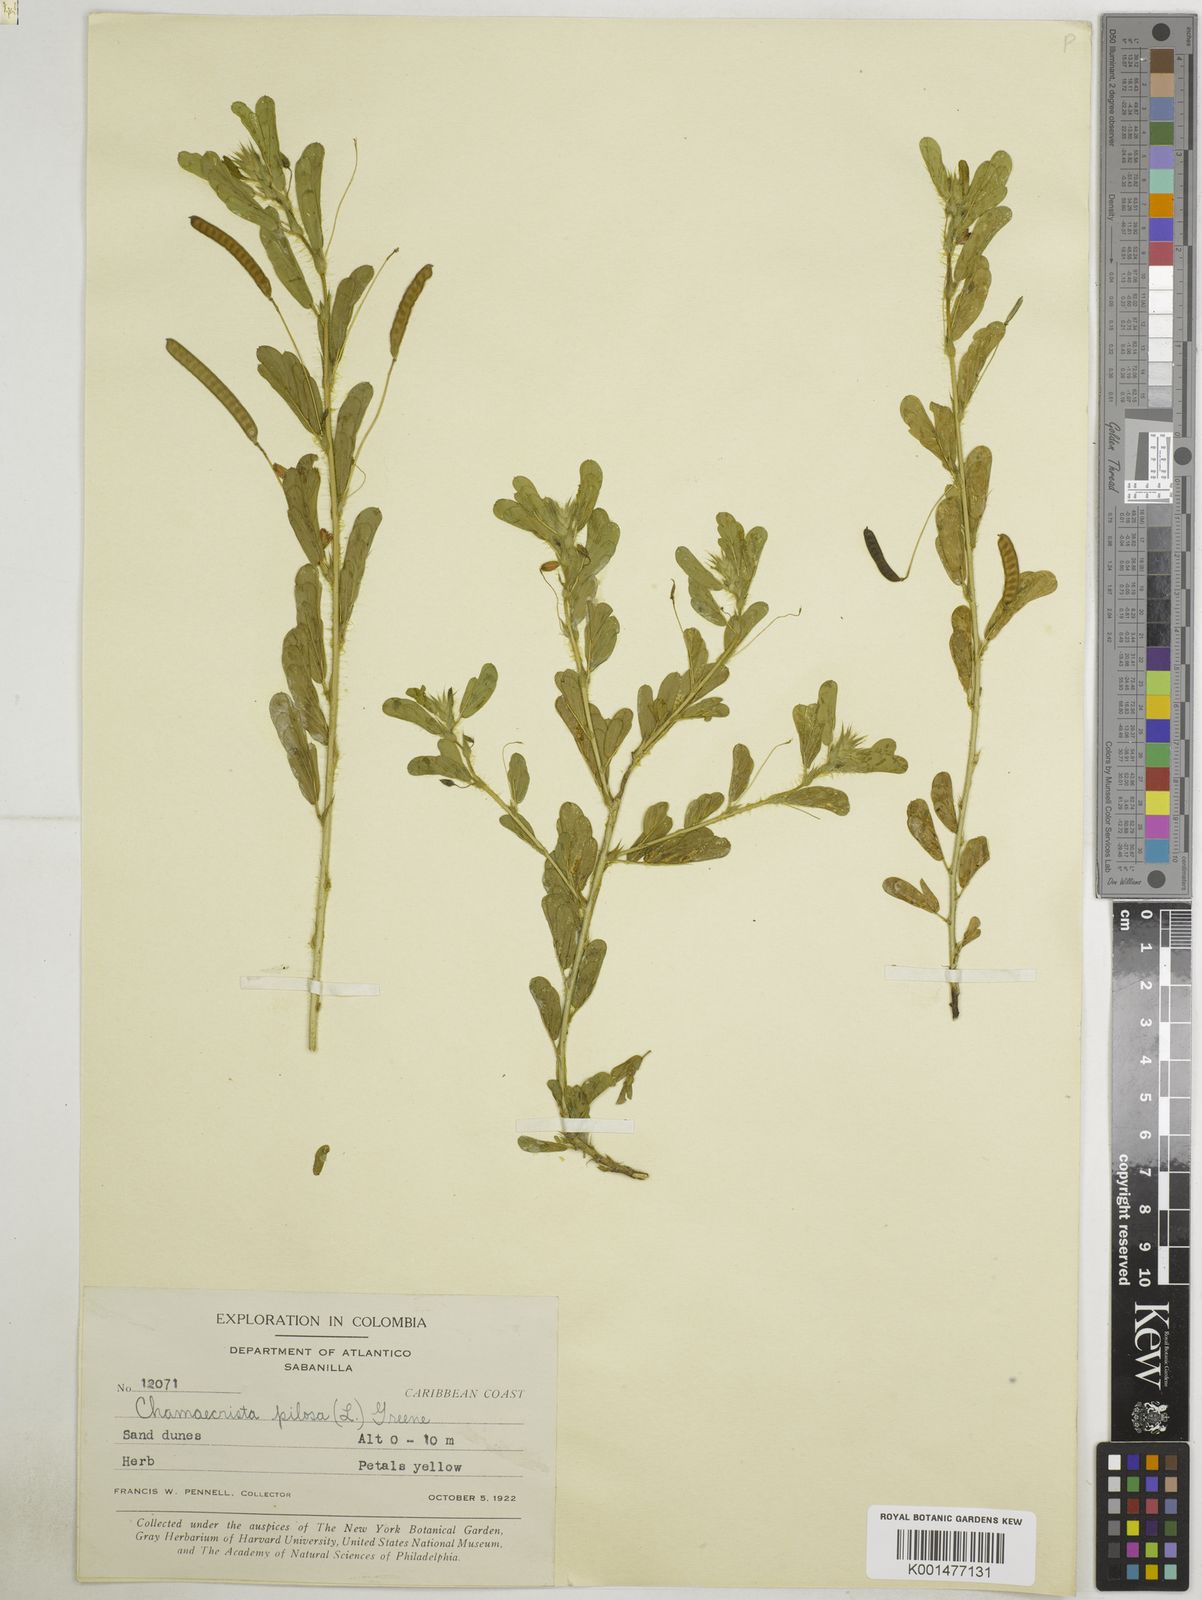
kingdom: Plantae
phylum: Tracheophyta
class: Magnoliopsida
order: Fabales
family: Fabaceae
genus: Chamaecrista
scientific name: Chamaecrista pilosa
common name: Hairy sensitive pea
